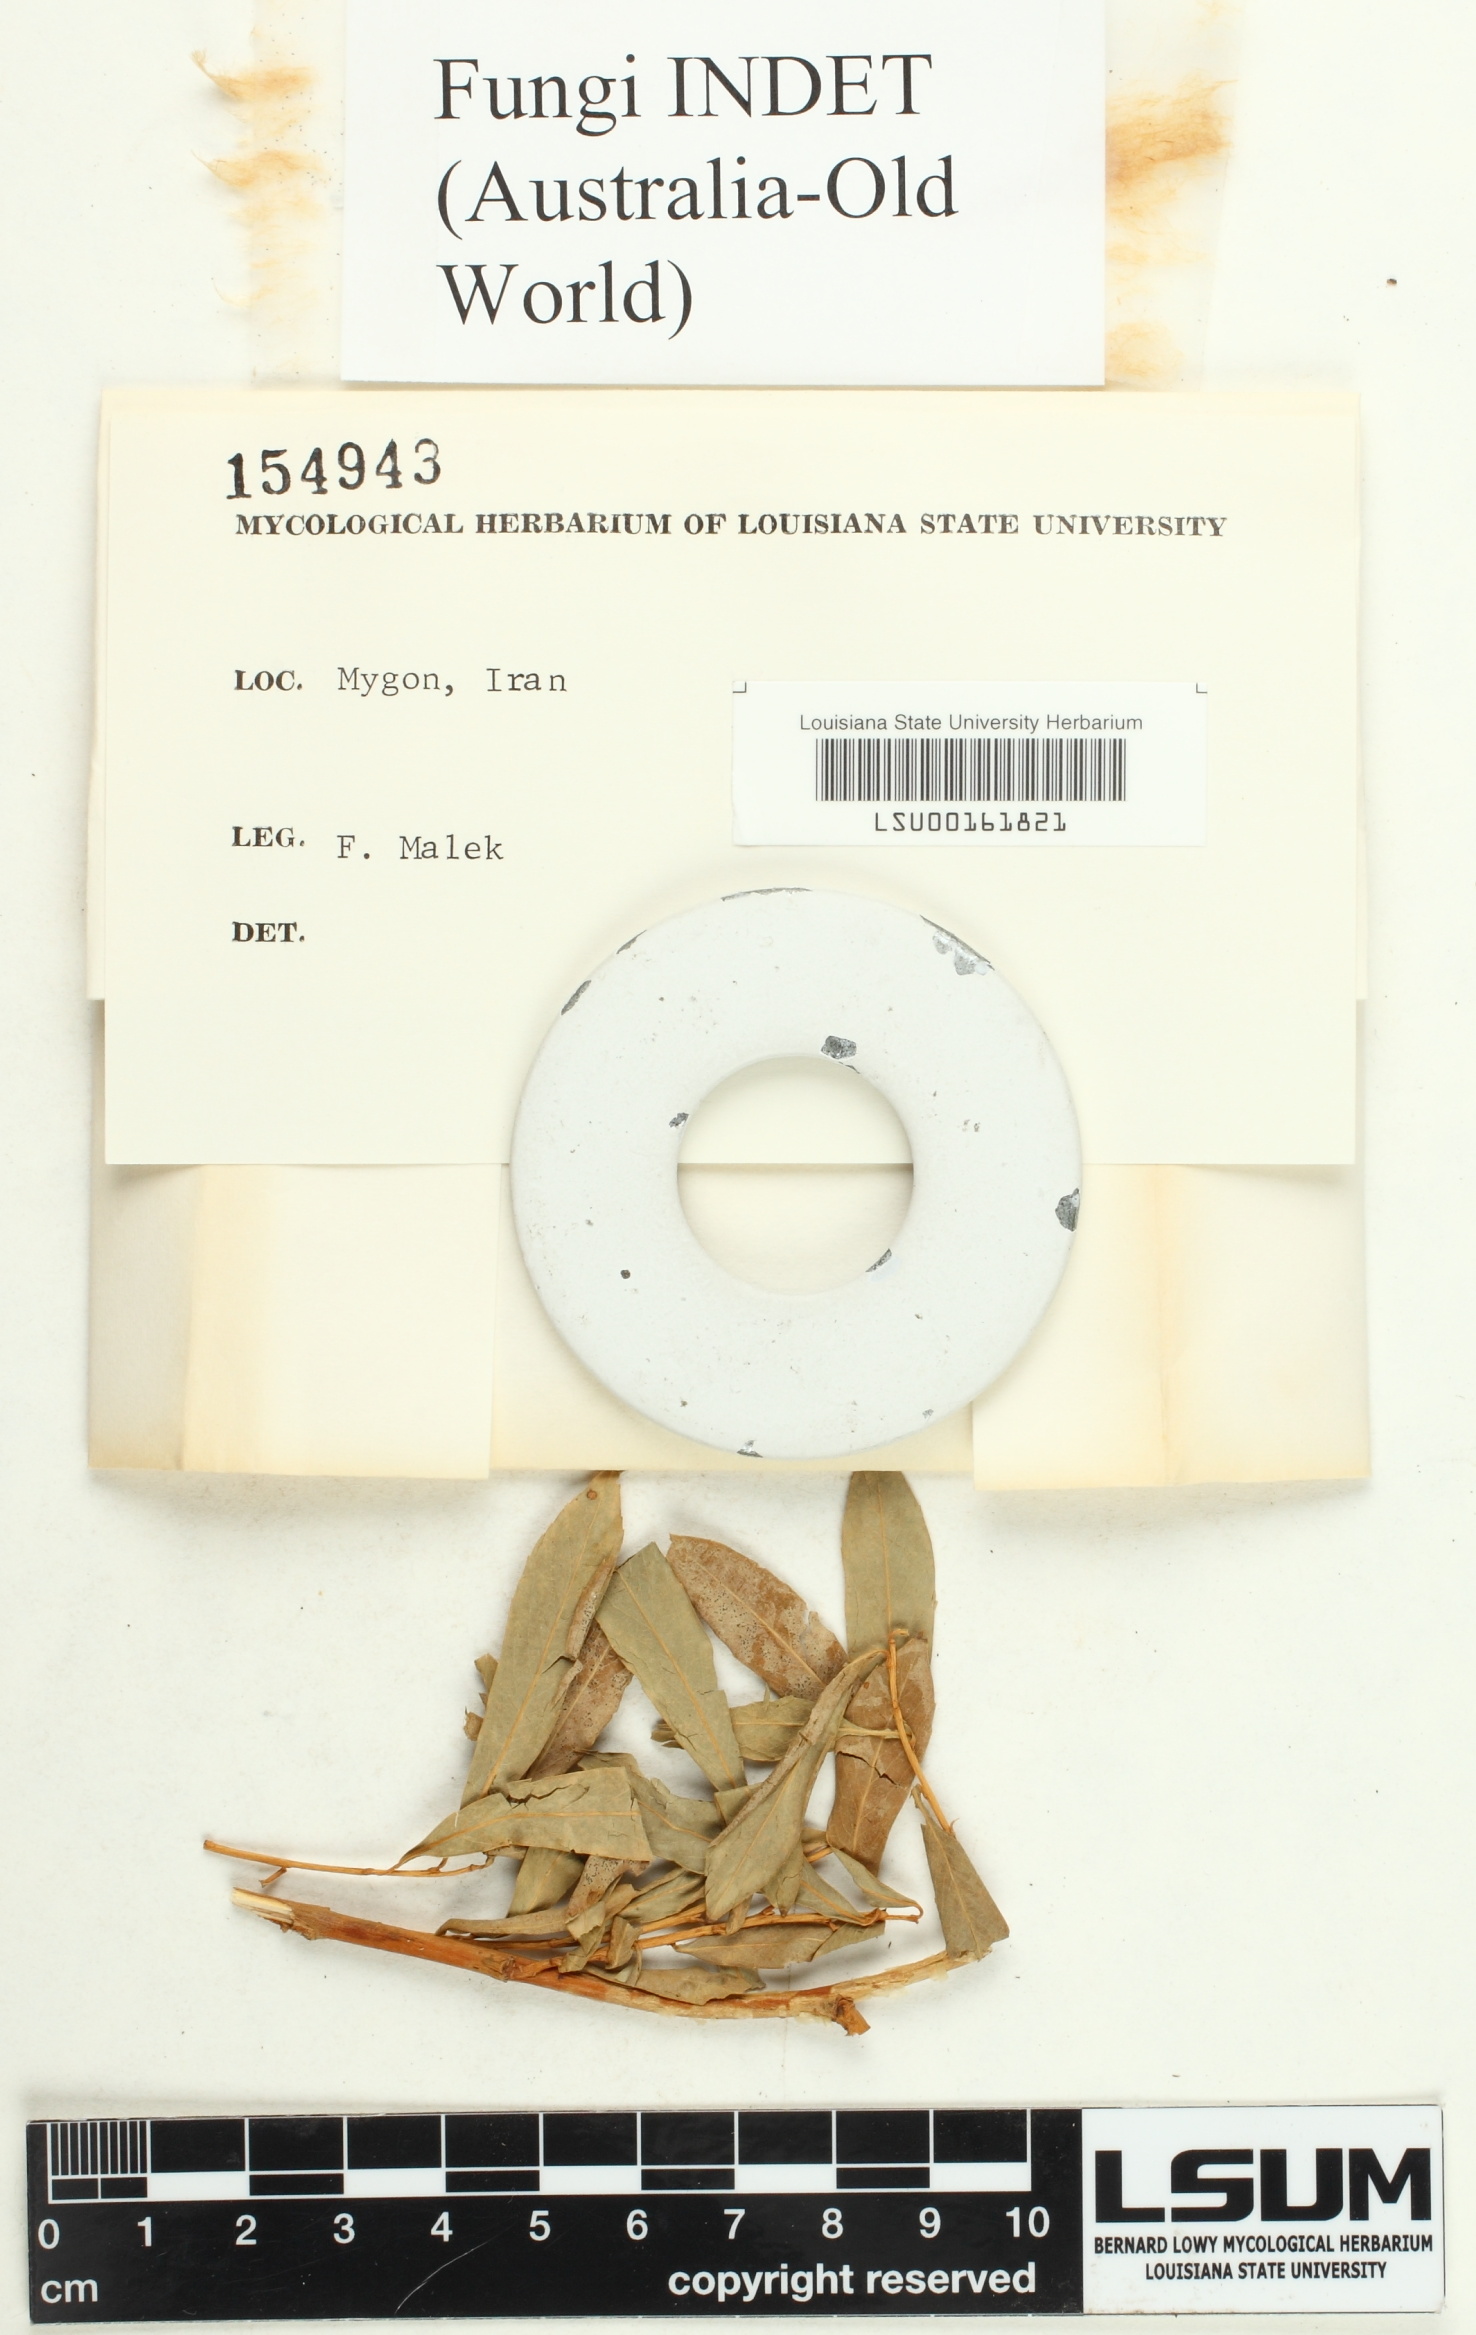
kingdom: Fungi
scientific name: Fungi
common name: Fungi
